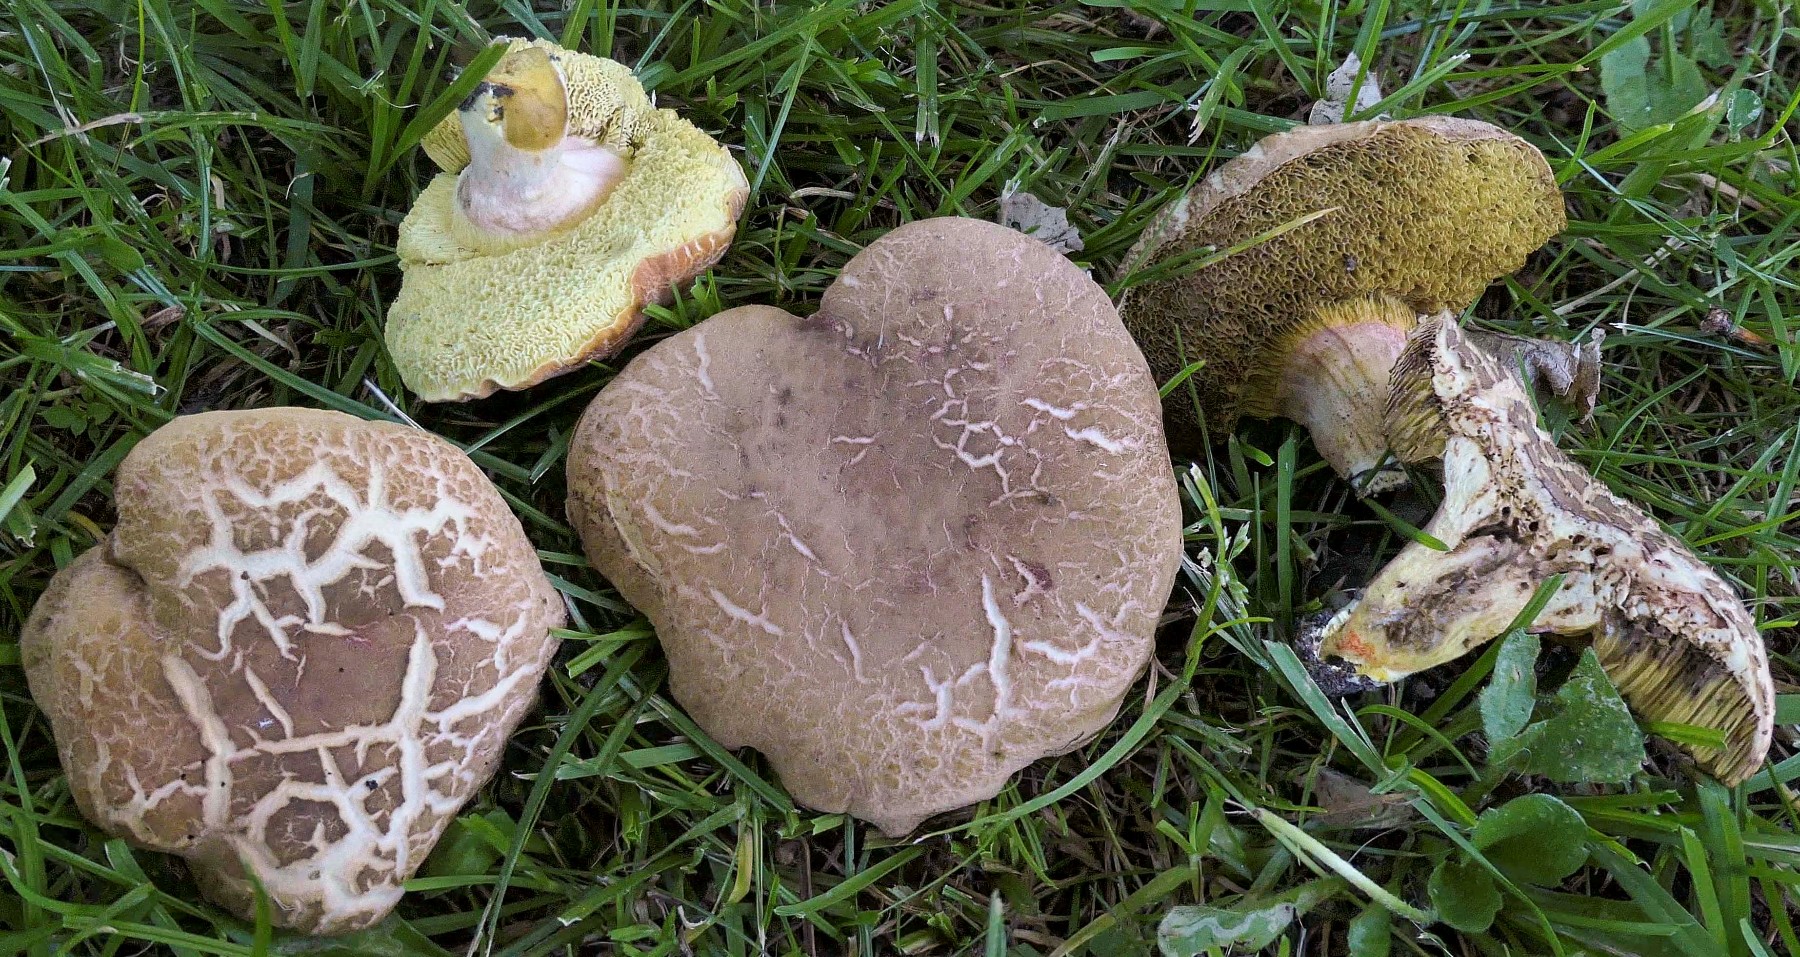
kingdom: Fungi
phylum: Basidiomycota
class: Agaricomycetes
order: Boletales
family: Boletaceae
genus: Hortiboletus
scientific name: Hortiboletus engelii
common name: fersken-rørhat
